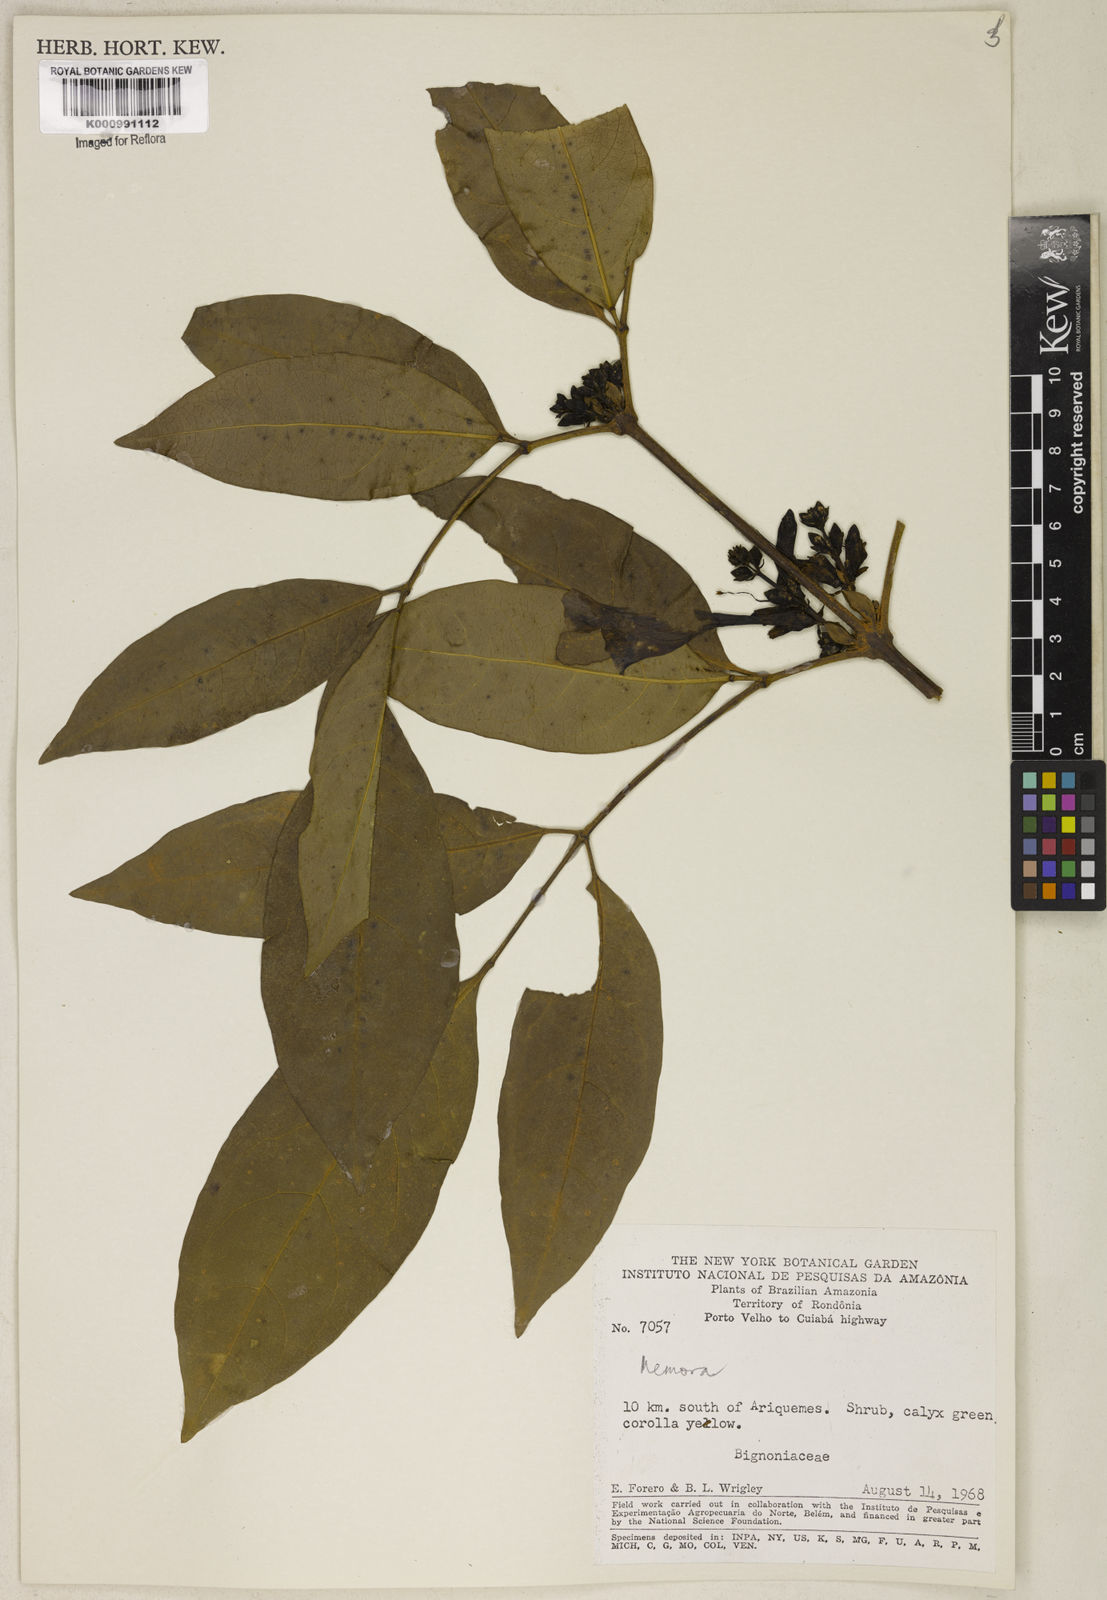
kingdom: Plantae
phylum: Tracheophyta
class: Magnoliopsida
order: Lamiales
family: Bignoniaceae
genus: Adenocalymma
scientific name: Adenocalymma
